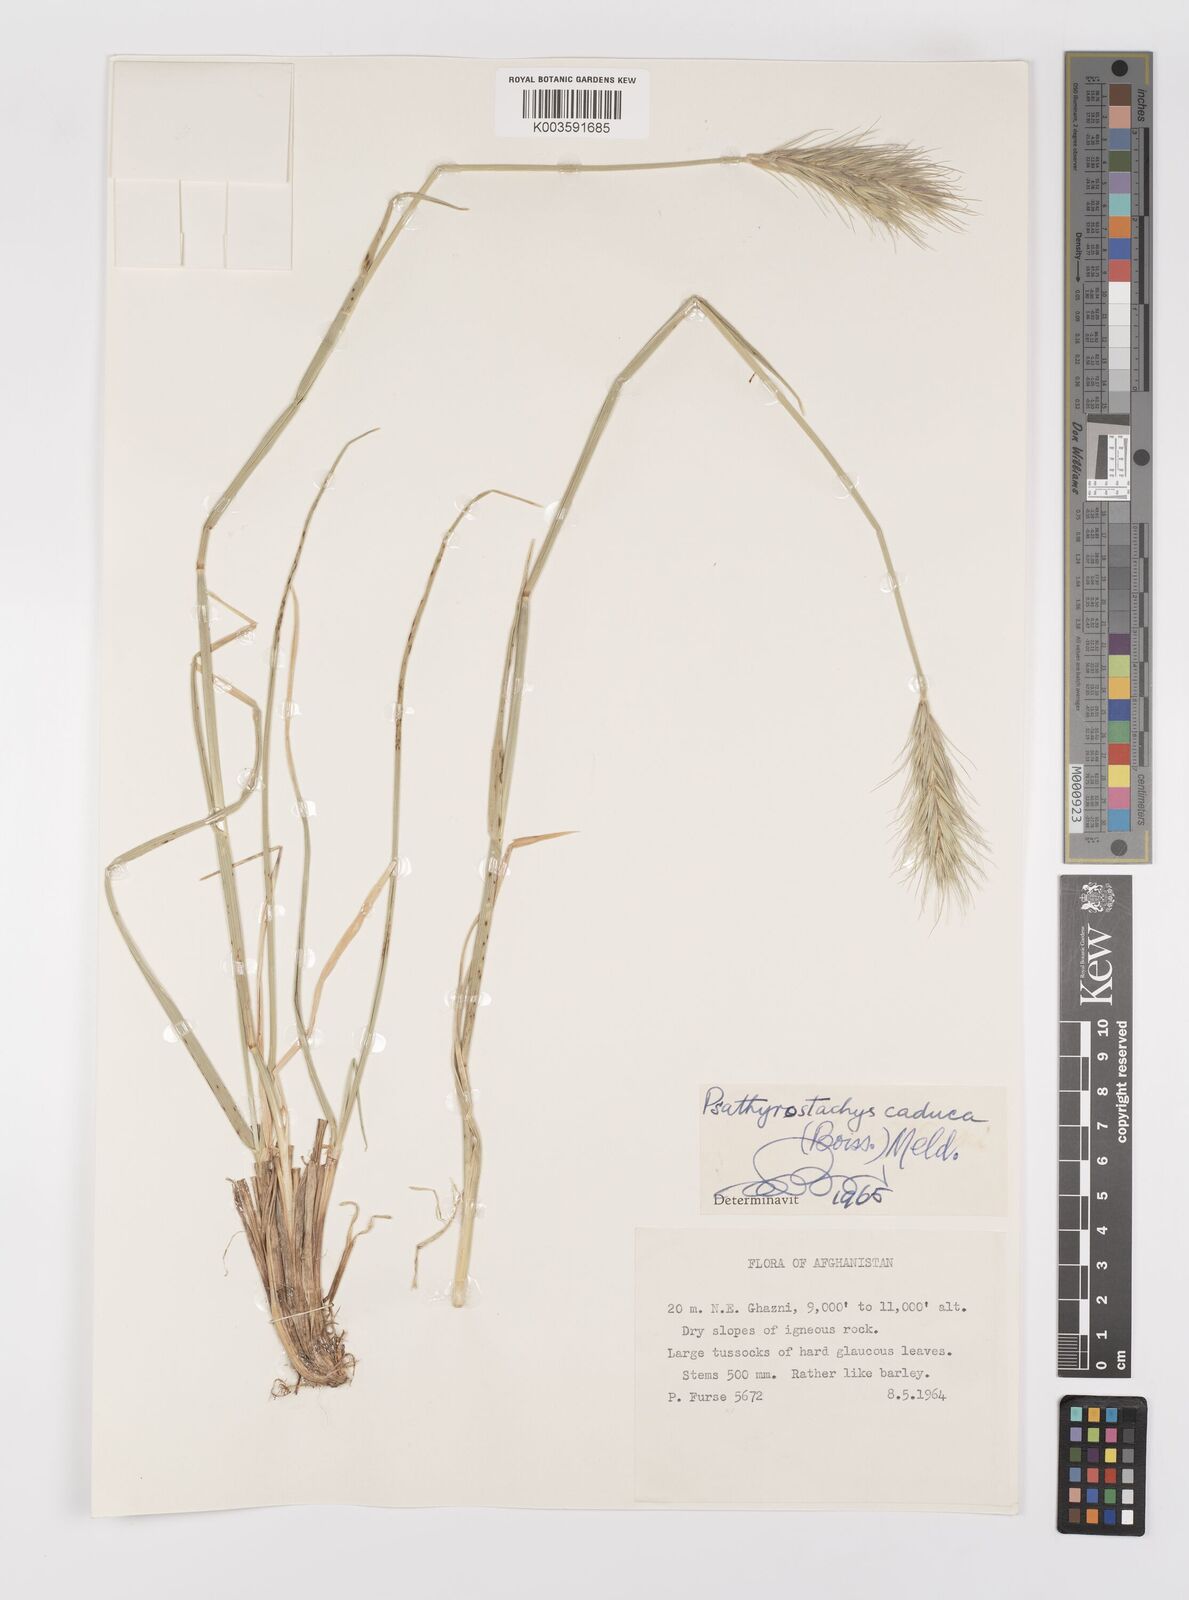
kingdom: Plantae
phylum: Tracheophyta
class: Liliopsida
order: Poales
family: Poaceae
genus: Psathyrostachys
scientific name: Psathyrostachys caduca
